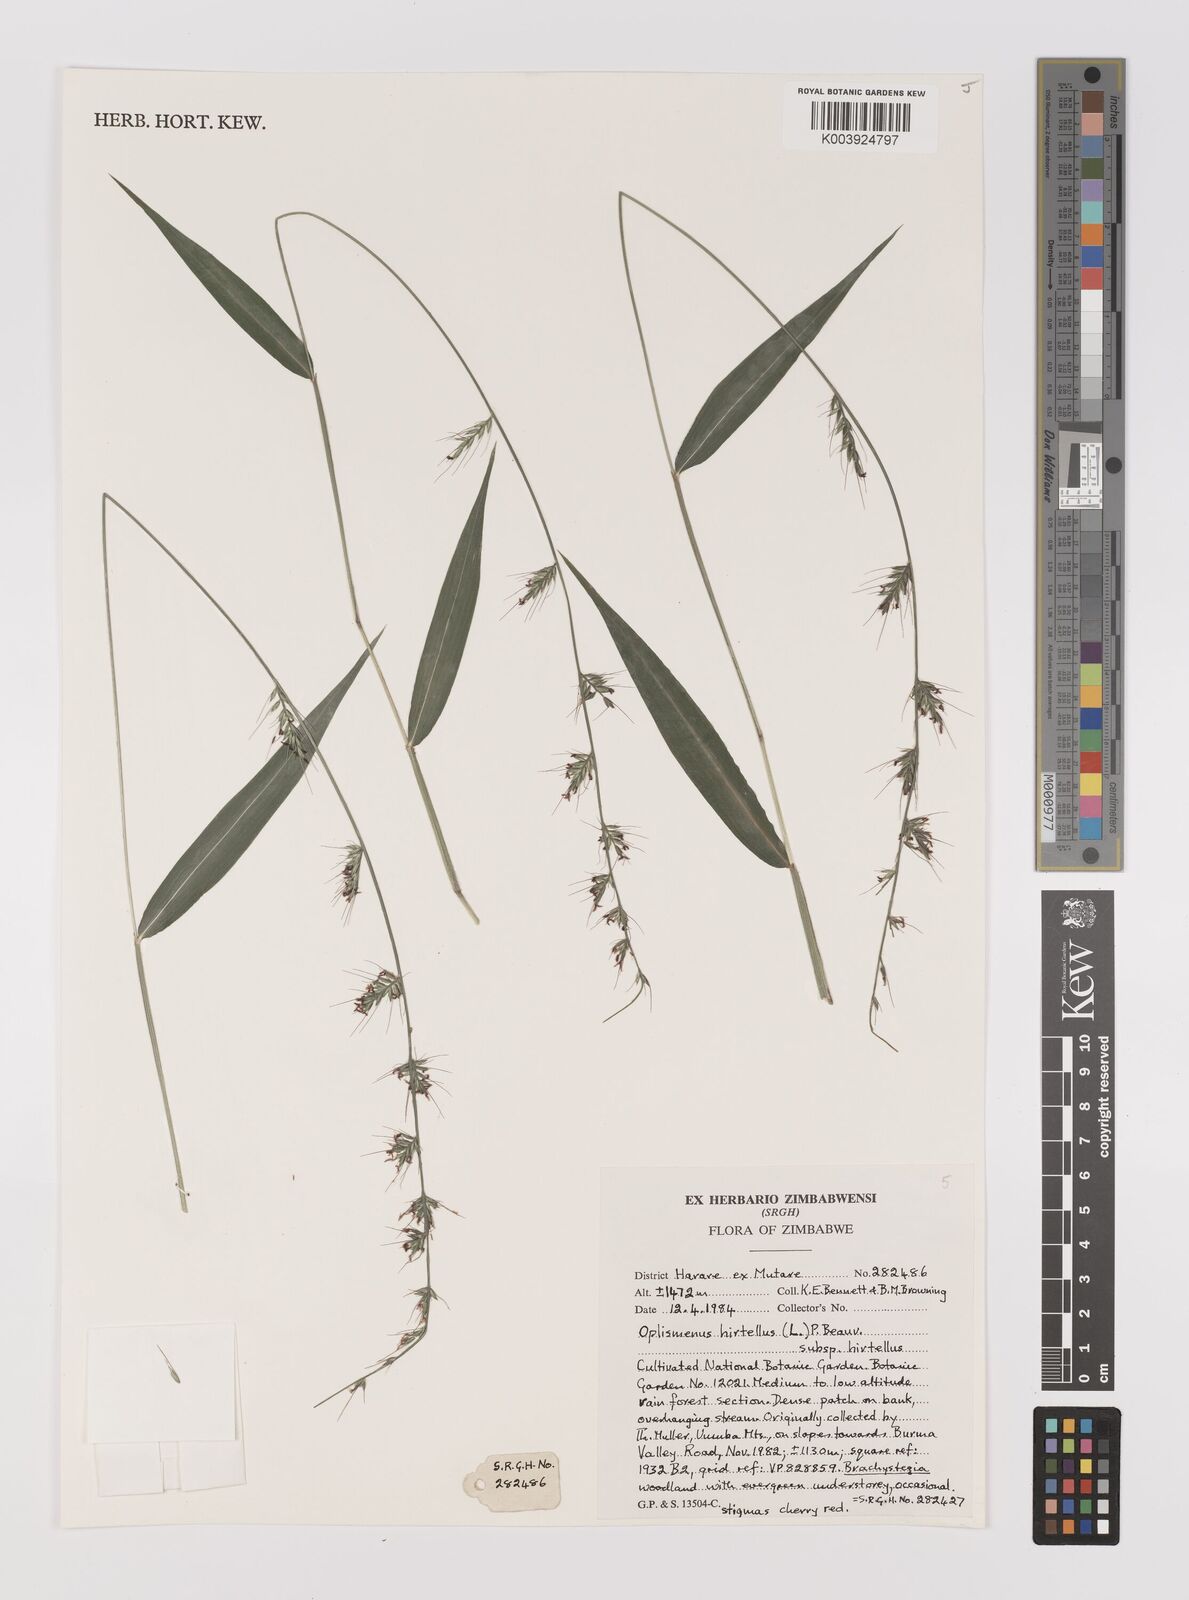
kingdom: Plantae
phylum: Tracheophyta
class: Liliopsida
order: Poales
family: Poaceae
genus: Oplismenus
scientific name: Oplismenus hirtellus
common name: Basketgrass
